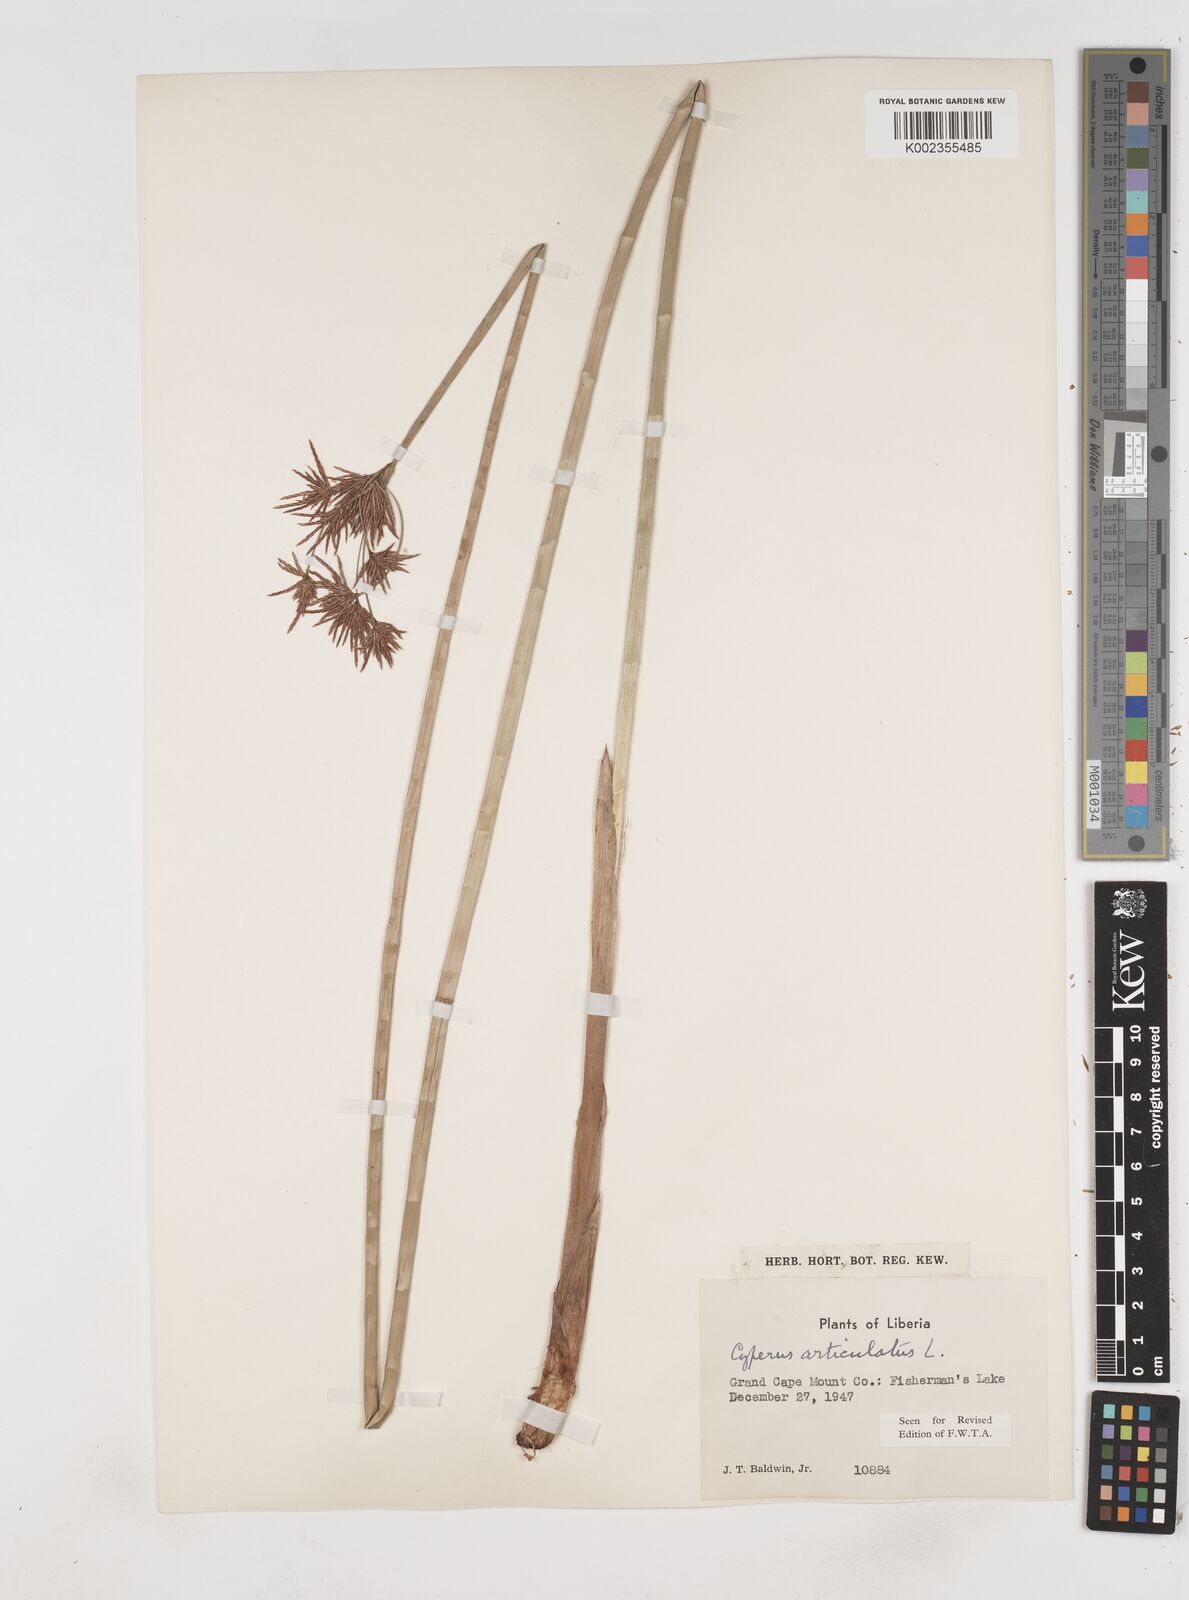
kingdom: Plantae
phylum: Tracheophyta
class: Liliopsida
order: Poales
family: Cyperaceae
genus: Cyperus
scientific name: Cyperus articulatus
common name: Jointed flatsedge
